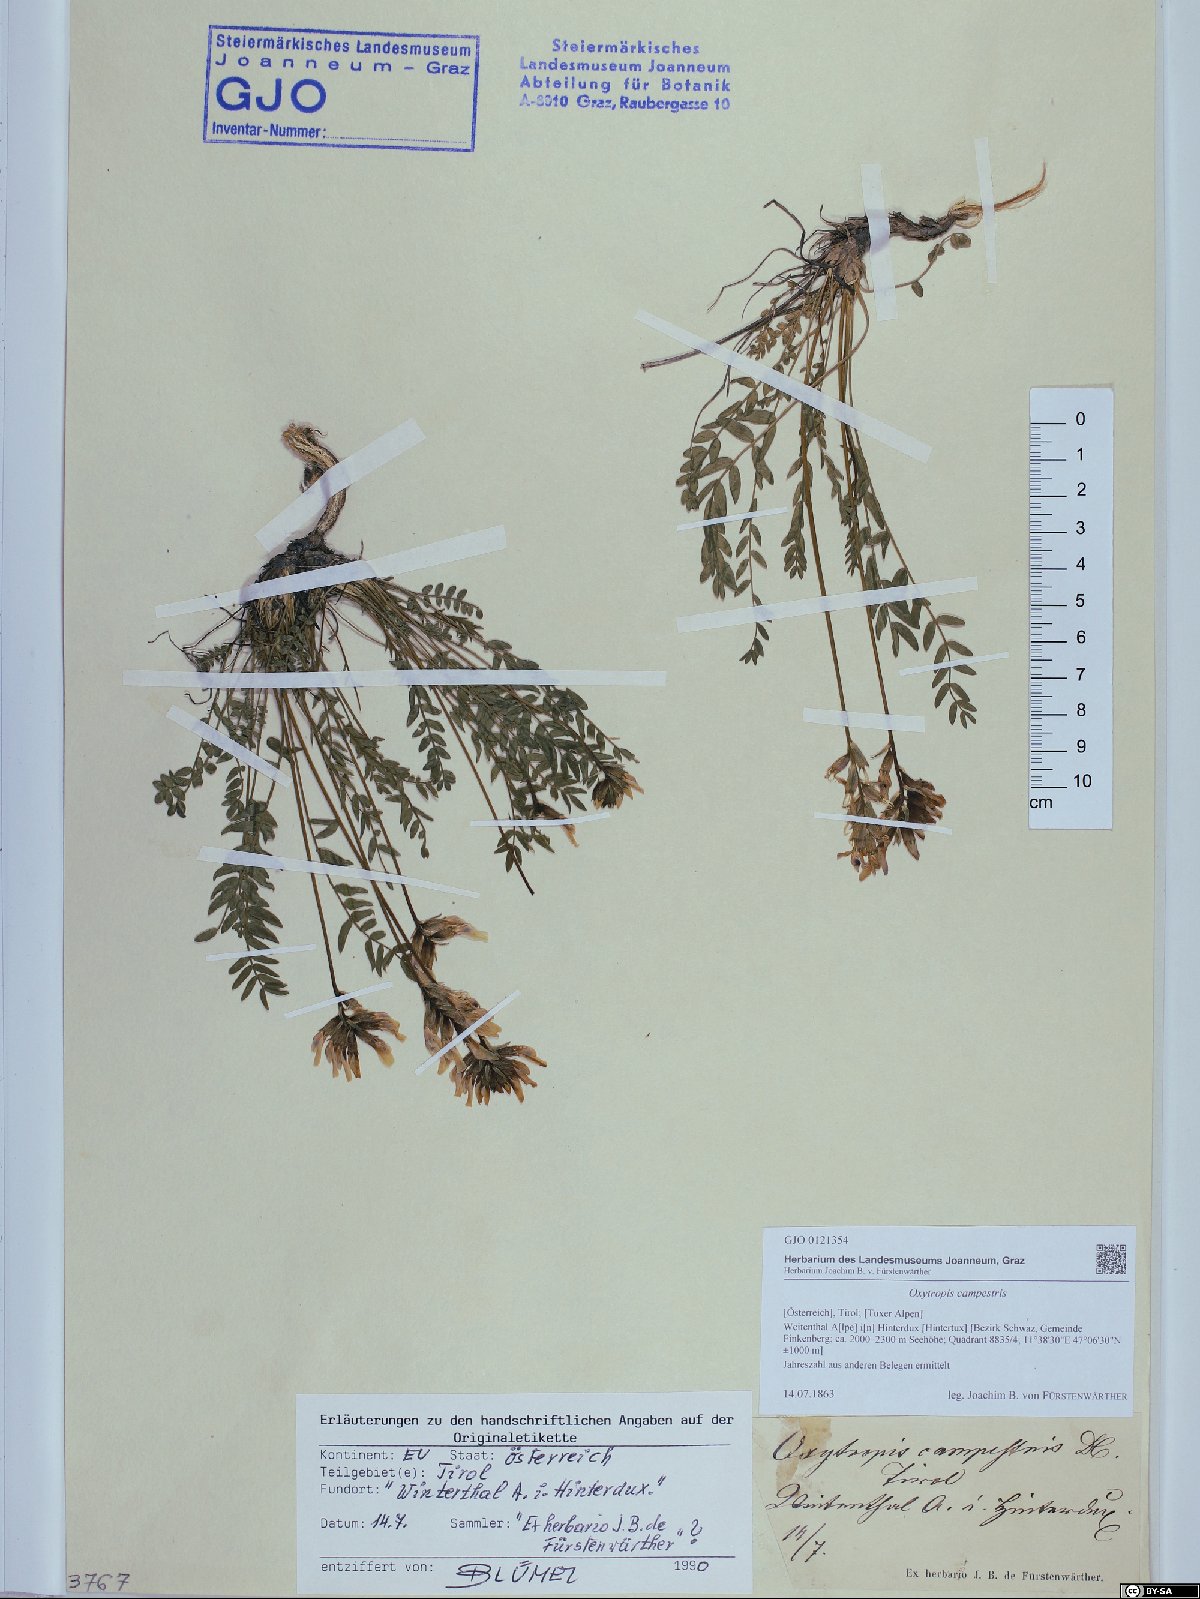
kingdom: Plantae
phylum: Tracheophyta
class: Magnoliopsida
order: Fabales
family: Fabaceae
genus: Oxytropis
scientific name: Oxytropis campestris
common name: Field locoweed
